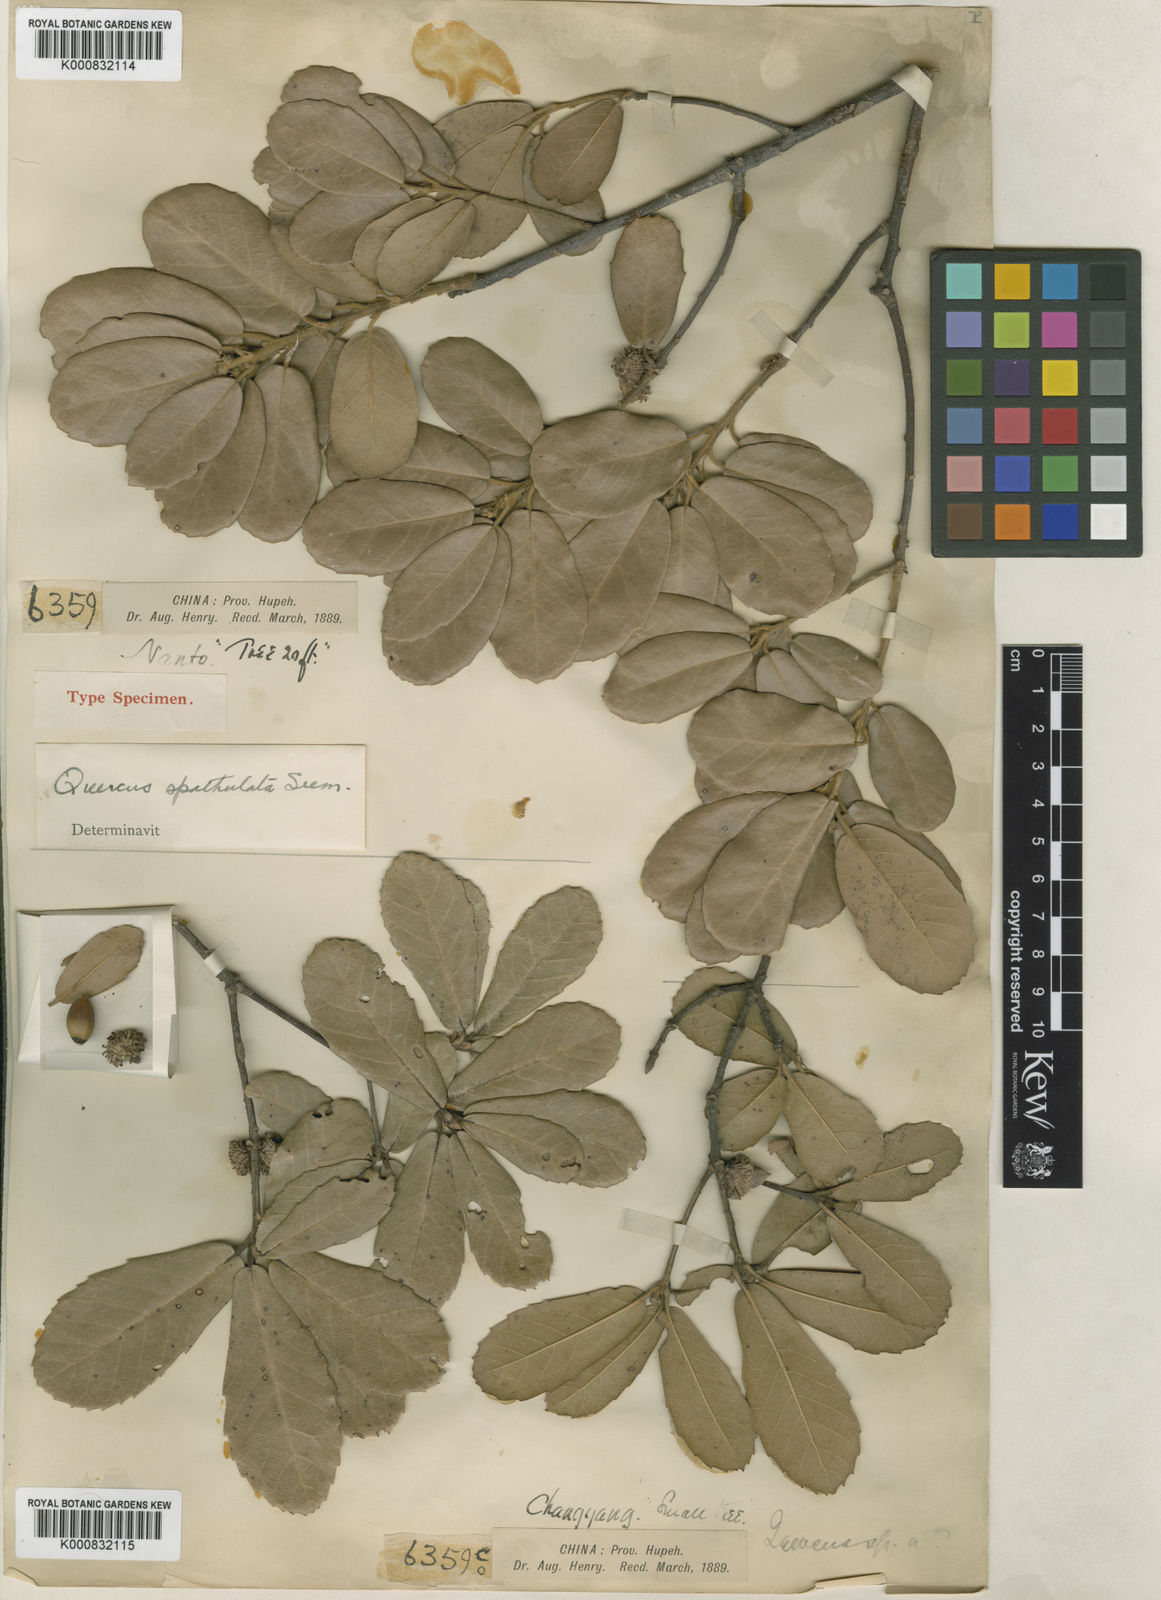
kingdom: Plantae
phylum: Tracheophyta
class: Magnoliopsida
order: Fagales
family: Fagaceae
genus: Quercus
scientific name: Quercus
